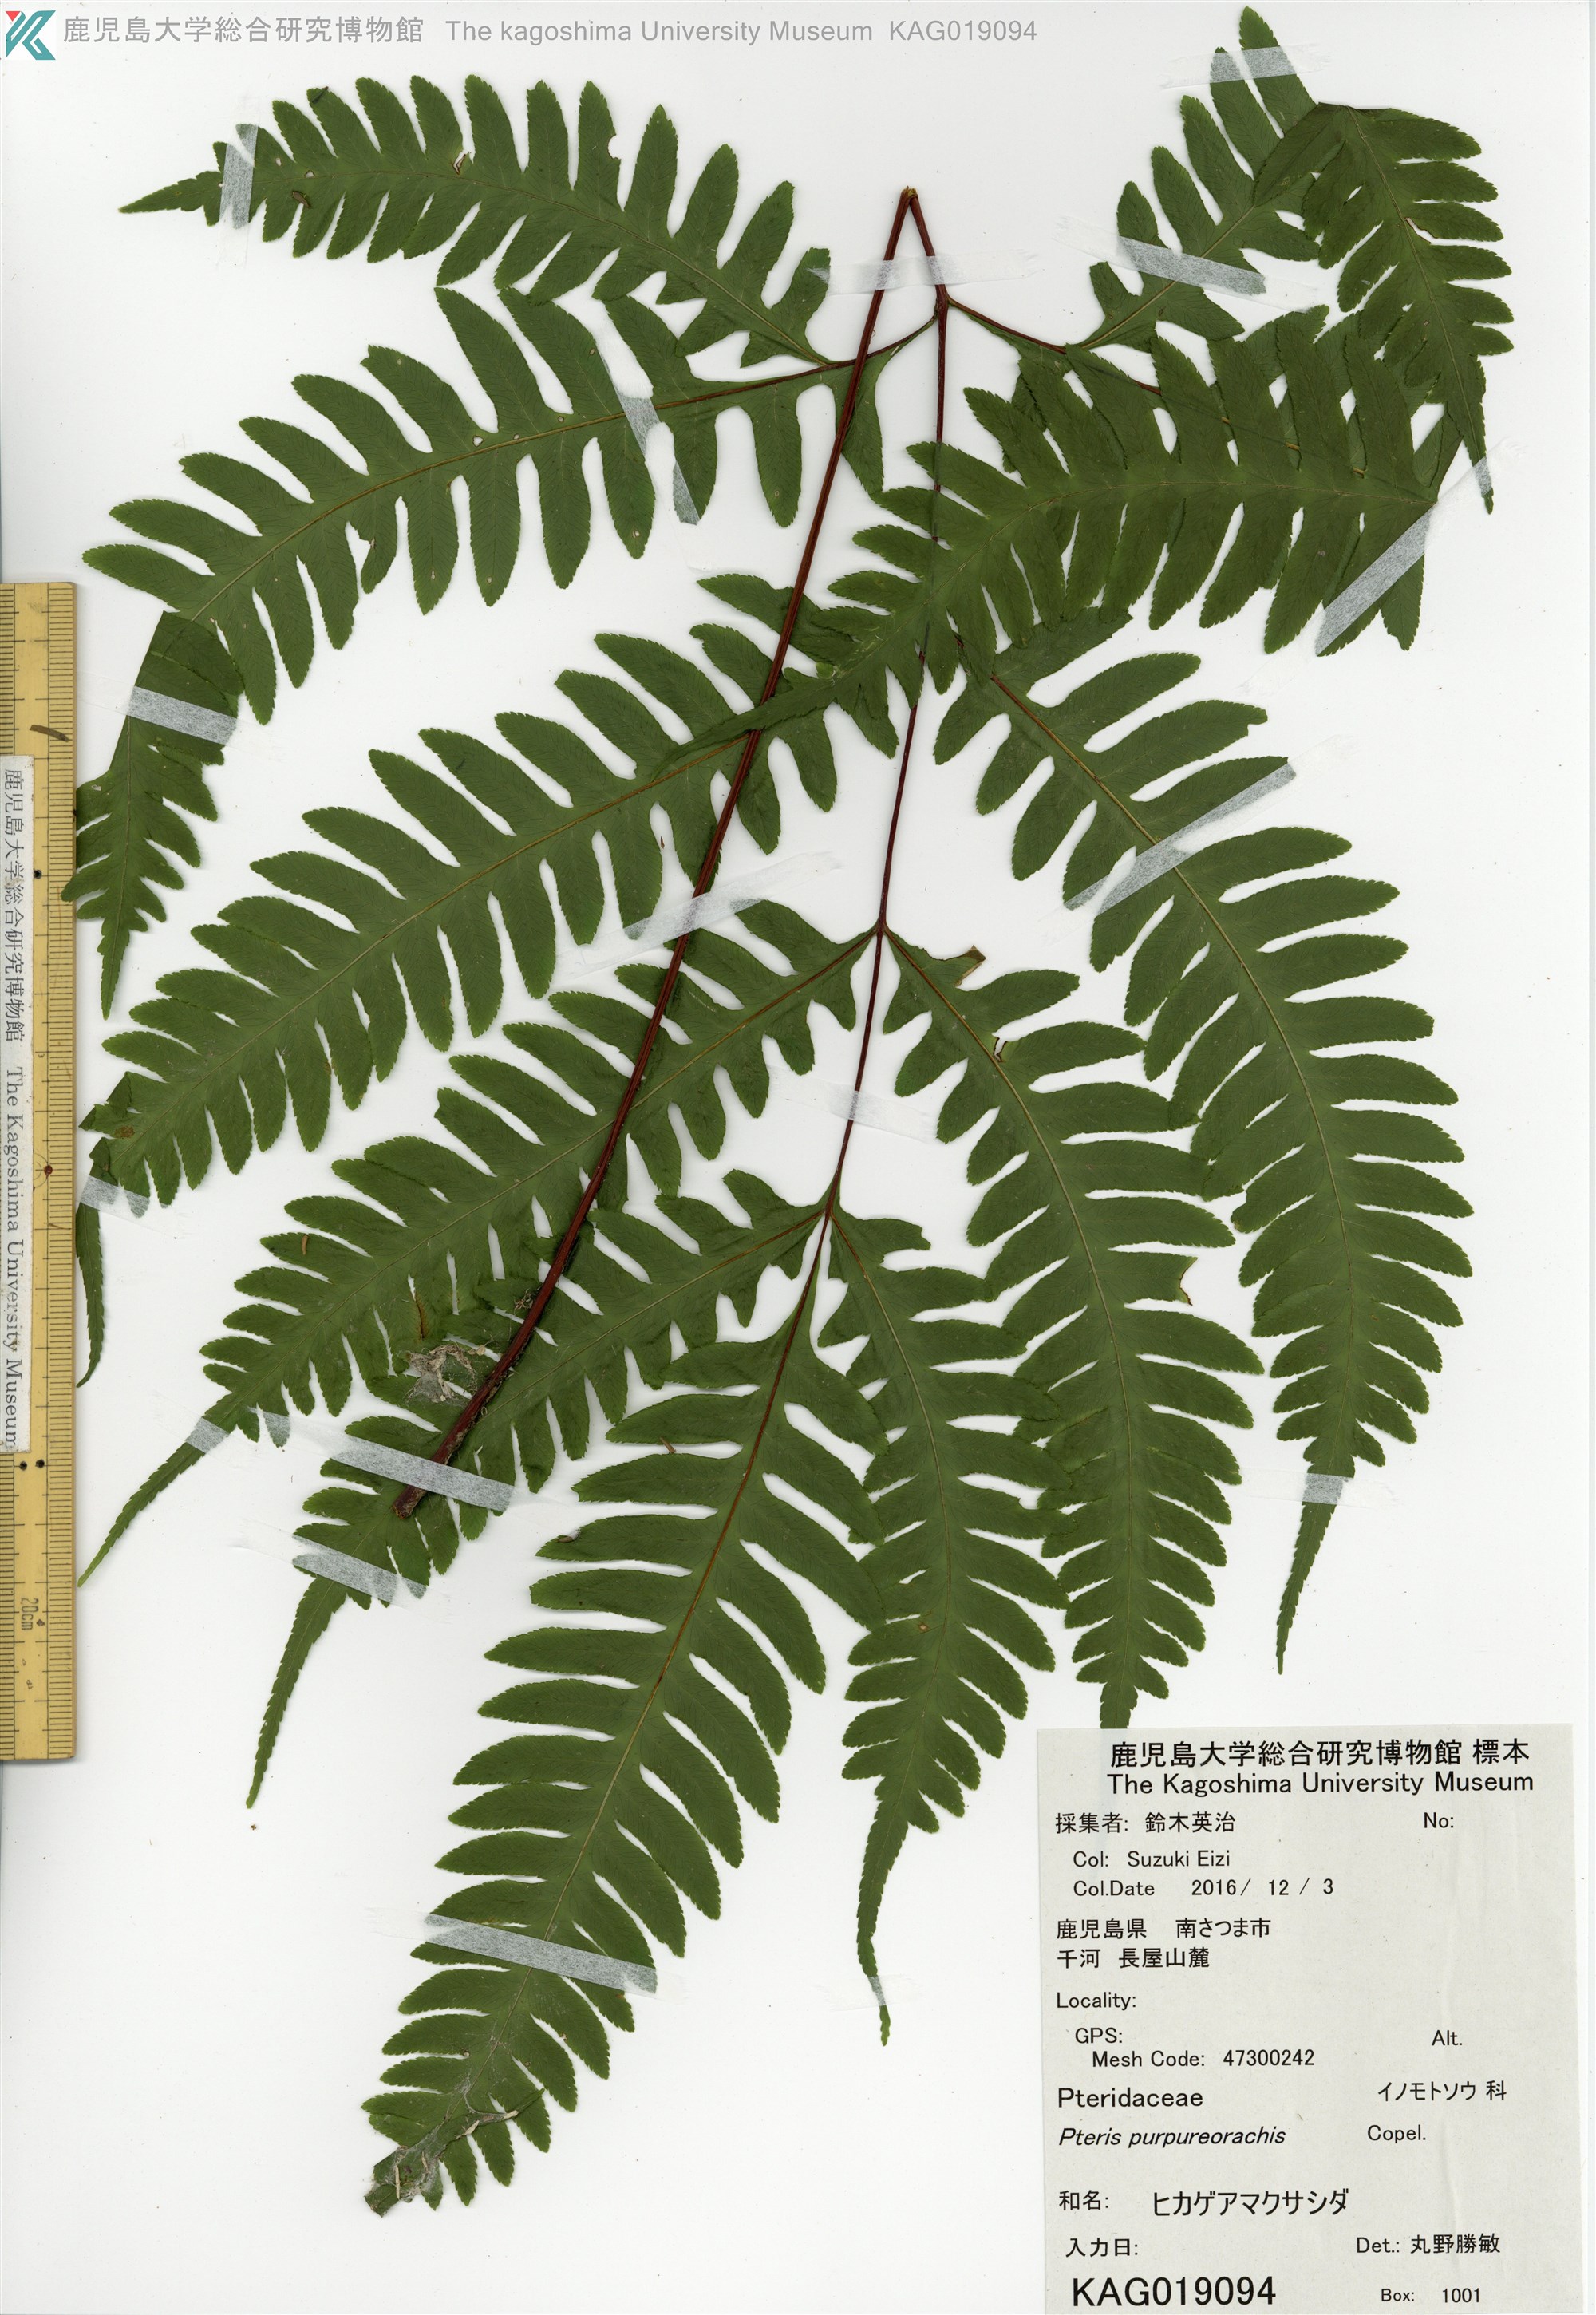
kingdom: Plantae
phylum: Tracheophyta
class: Polypodiopsida
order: Polypodiales
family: Pteridaceae
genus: Pteris
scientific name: Pteris amoena
